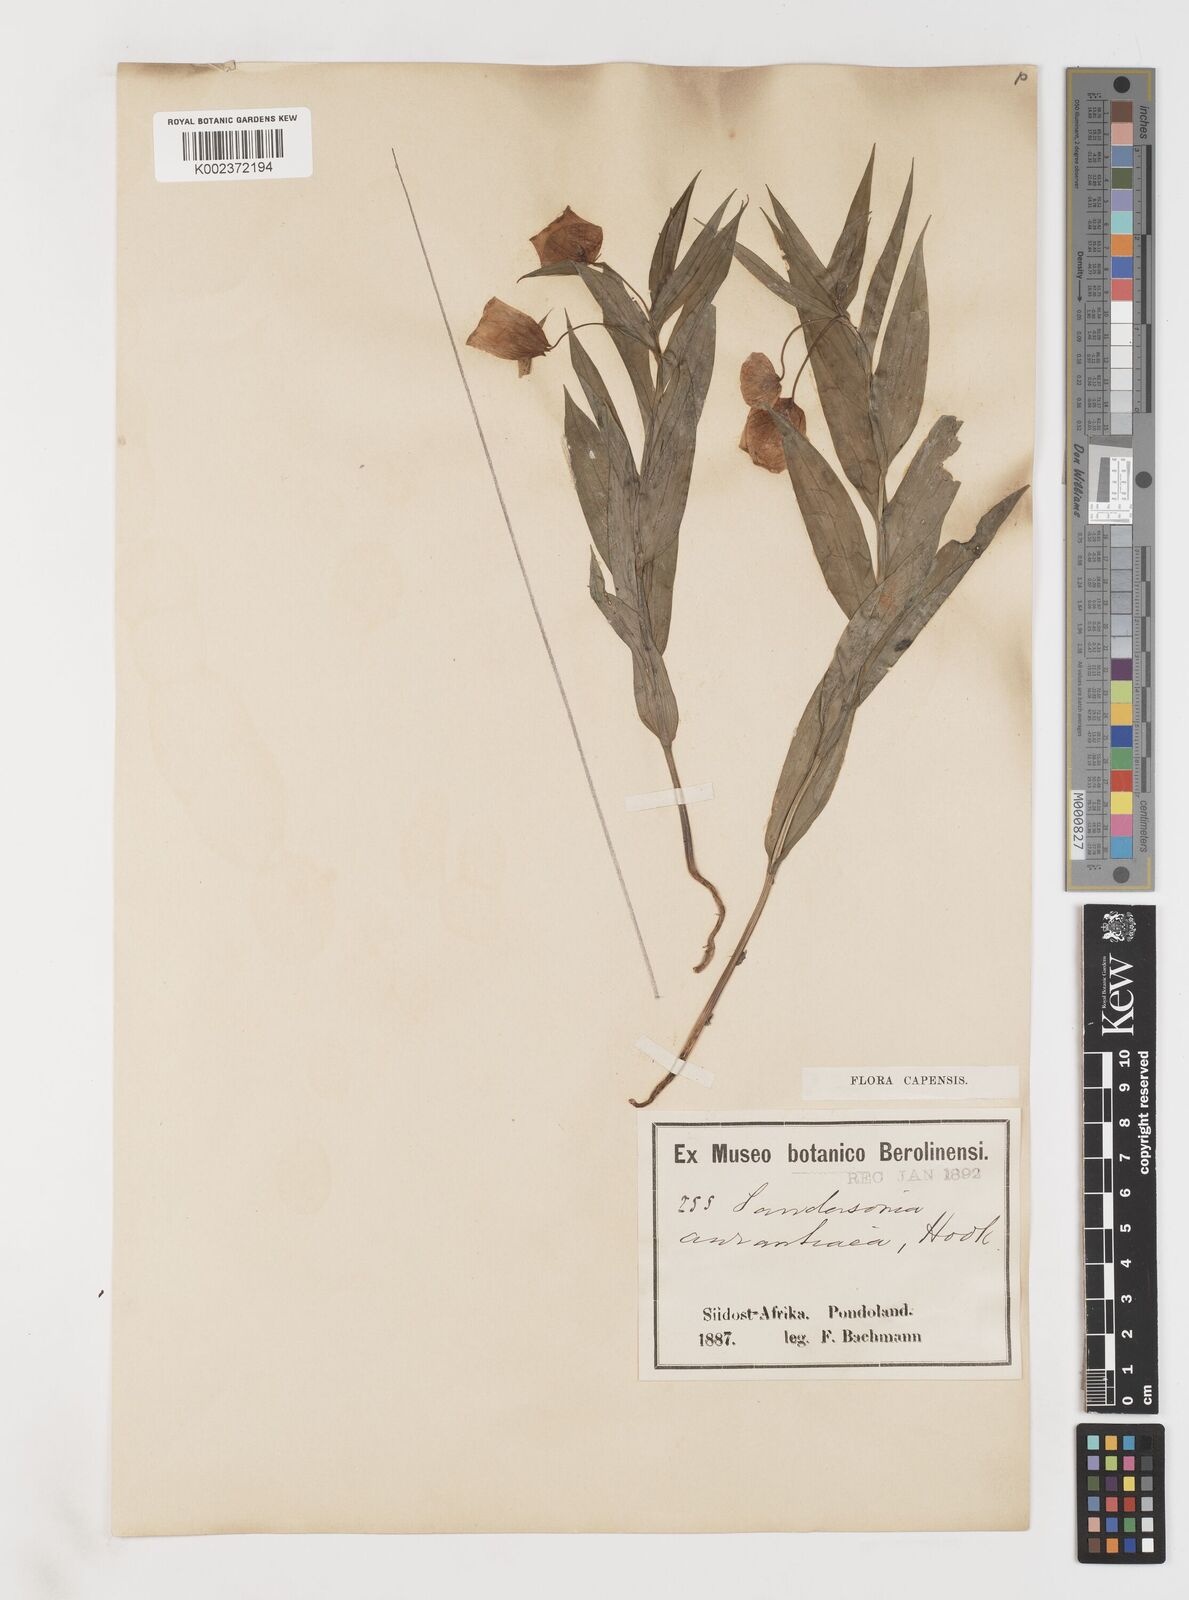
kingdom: Plantae
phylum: Tracheophyta
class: Liliopsida
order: Liliales
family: Colchicaceae
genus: Sandersonia
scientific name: Sandersonia aurantiaca
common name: Chinese-lantern-lily
